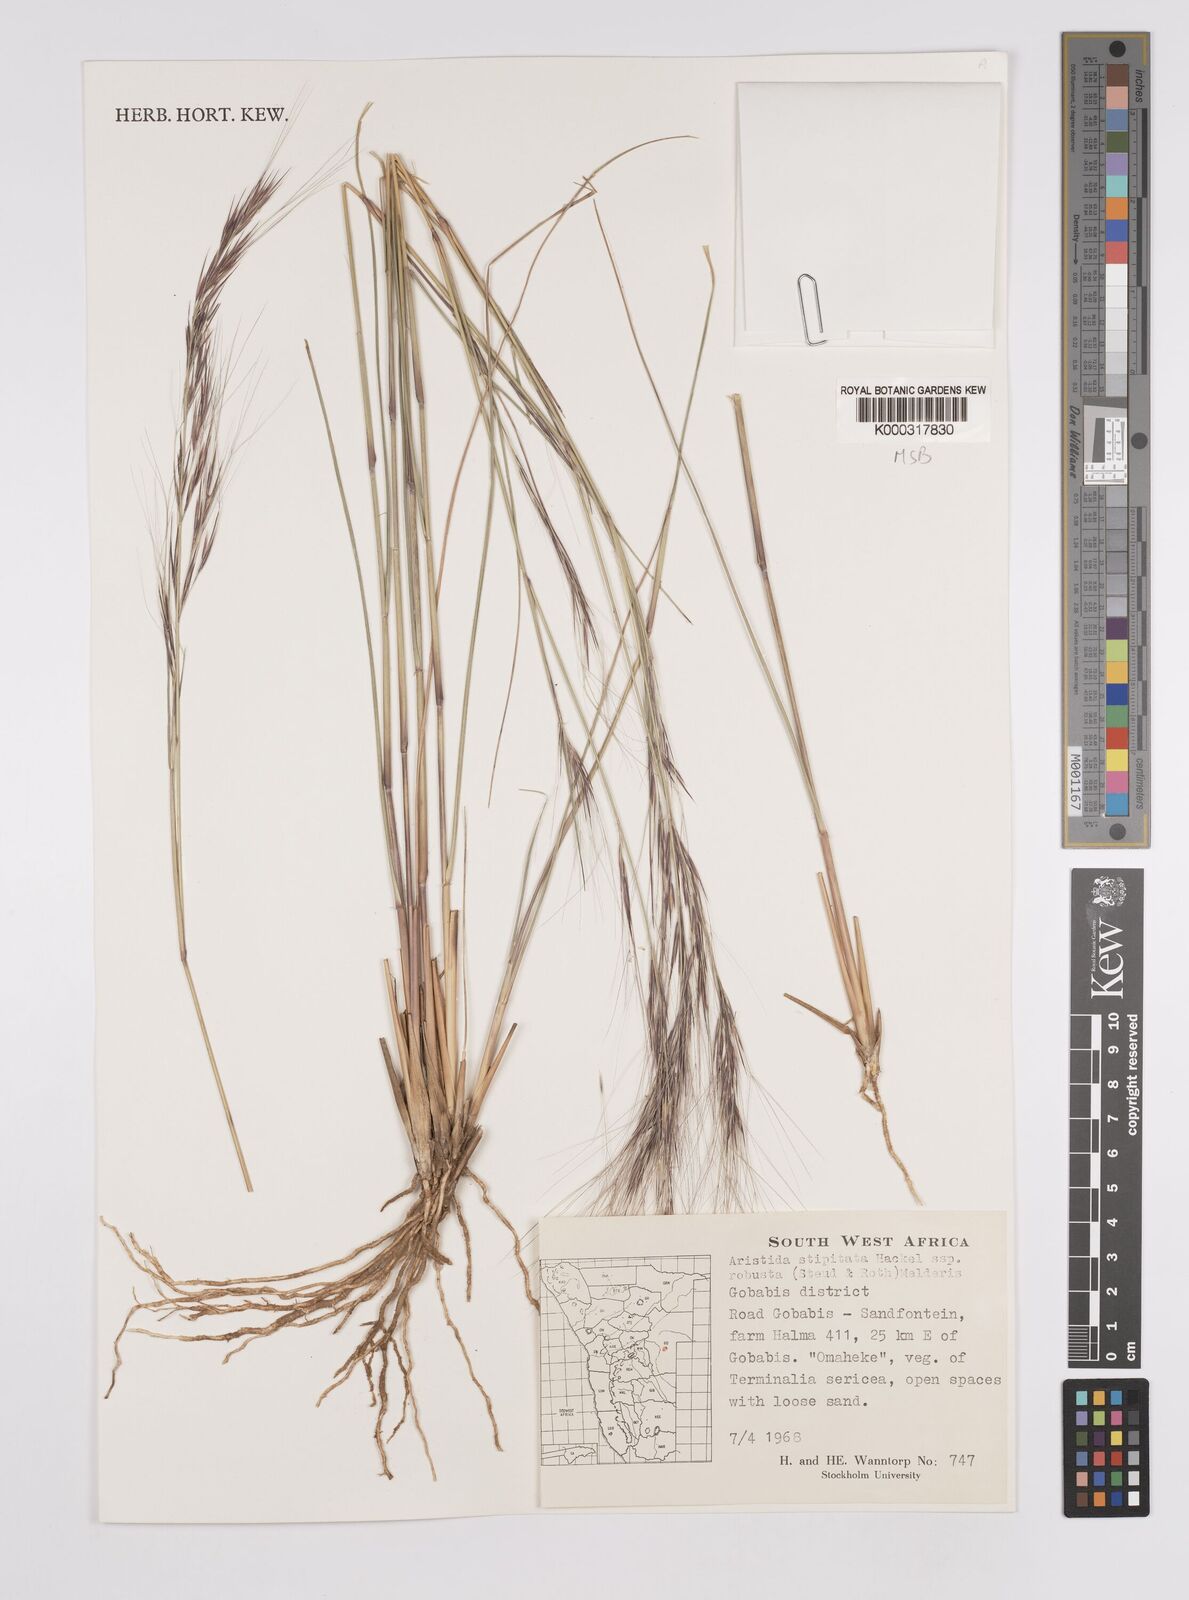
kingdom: Plantae
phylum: Tracheophyta
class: Liliopsida
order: Poales
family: Poaceae
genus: Aristida
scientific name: Aristida stipitata
